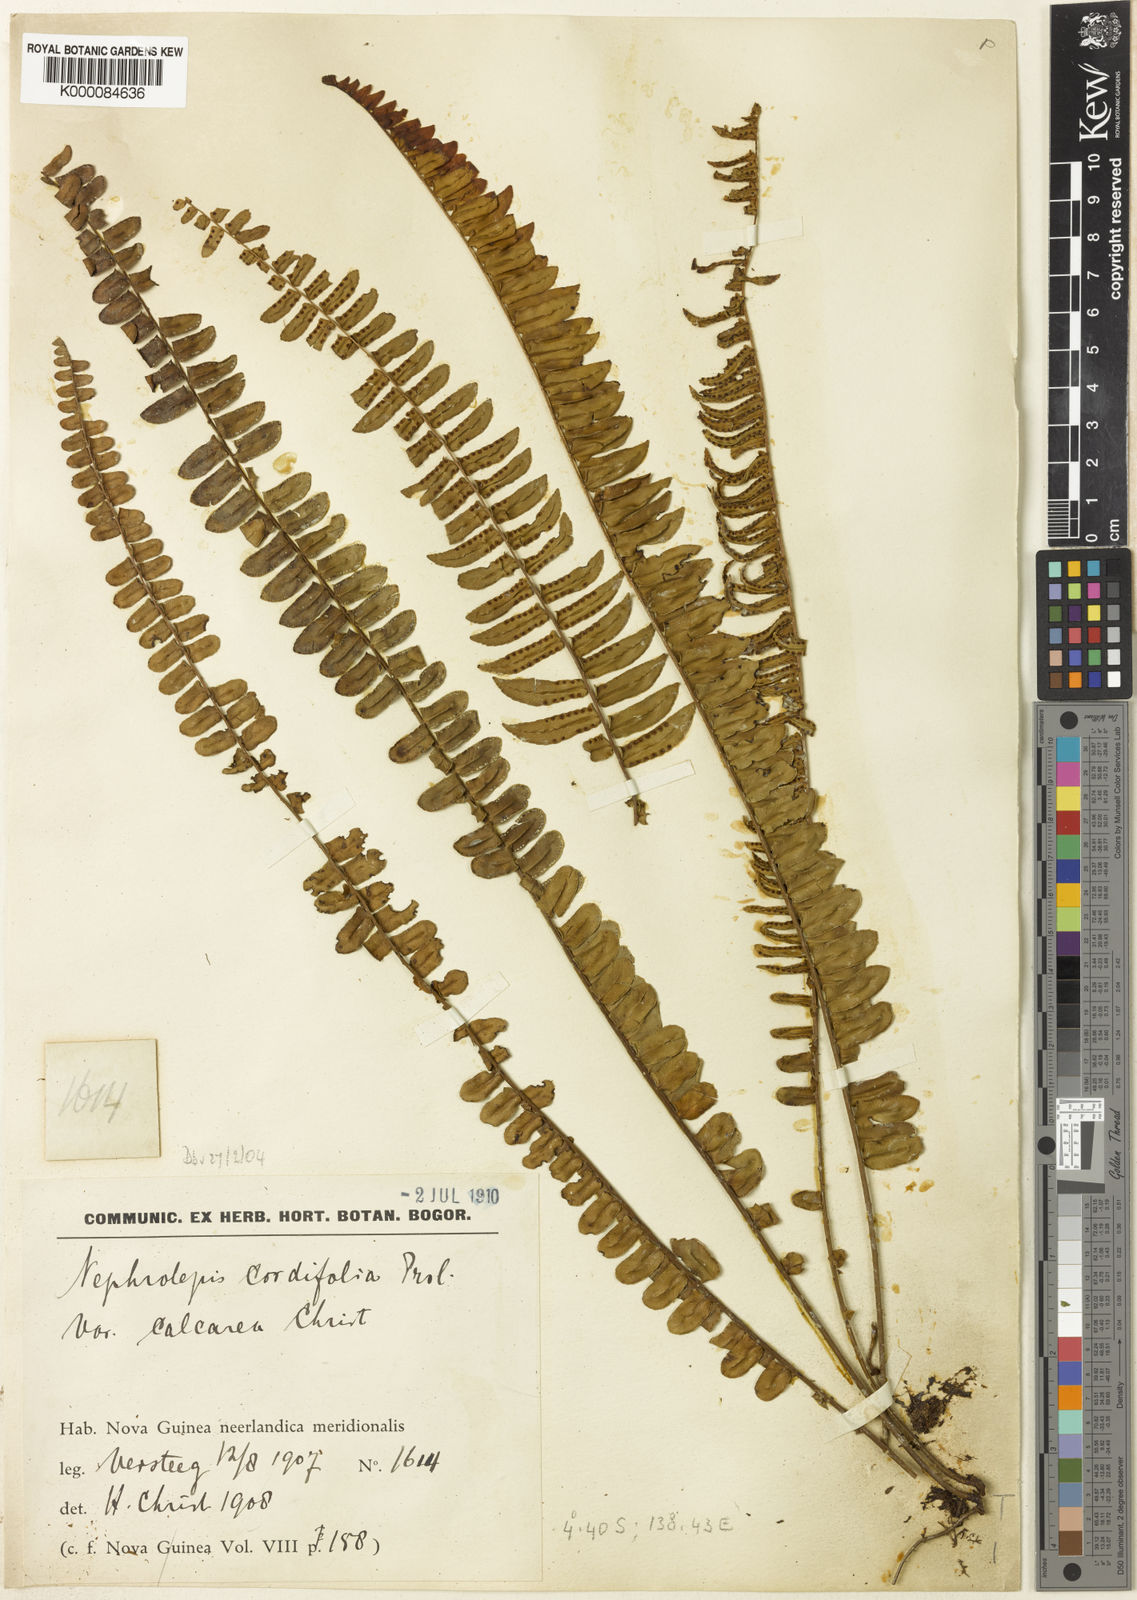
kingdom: Plantae
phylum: Tracheophyta
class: Polypodiopsida
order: Polypodiales
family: Nephrolepidaceae
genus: Nephrolepis
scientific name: Nephrolepis falciformis
